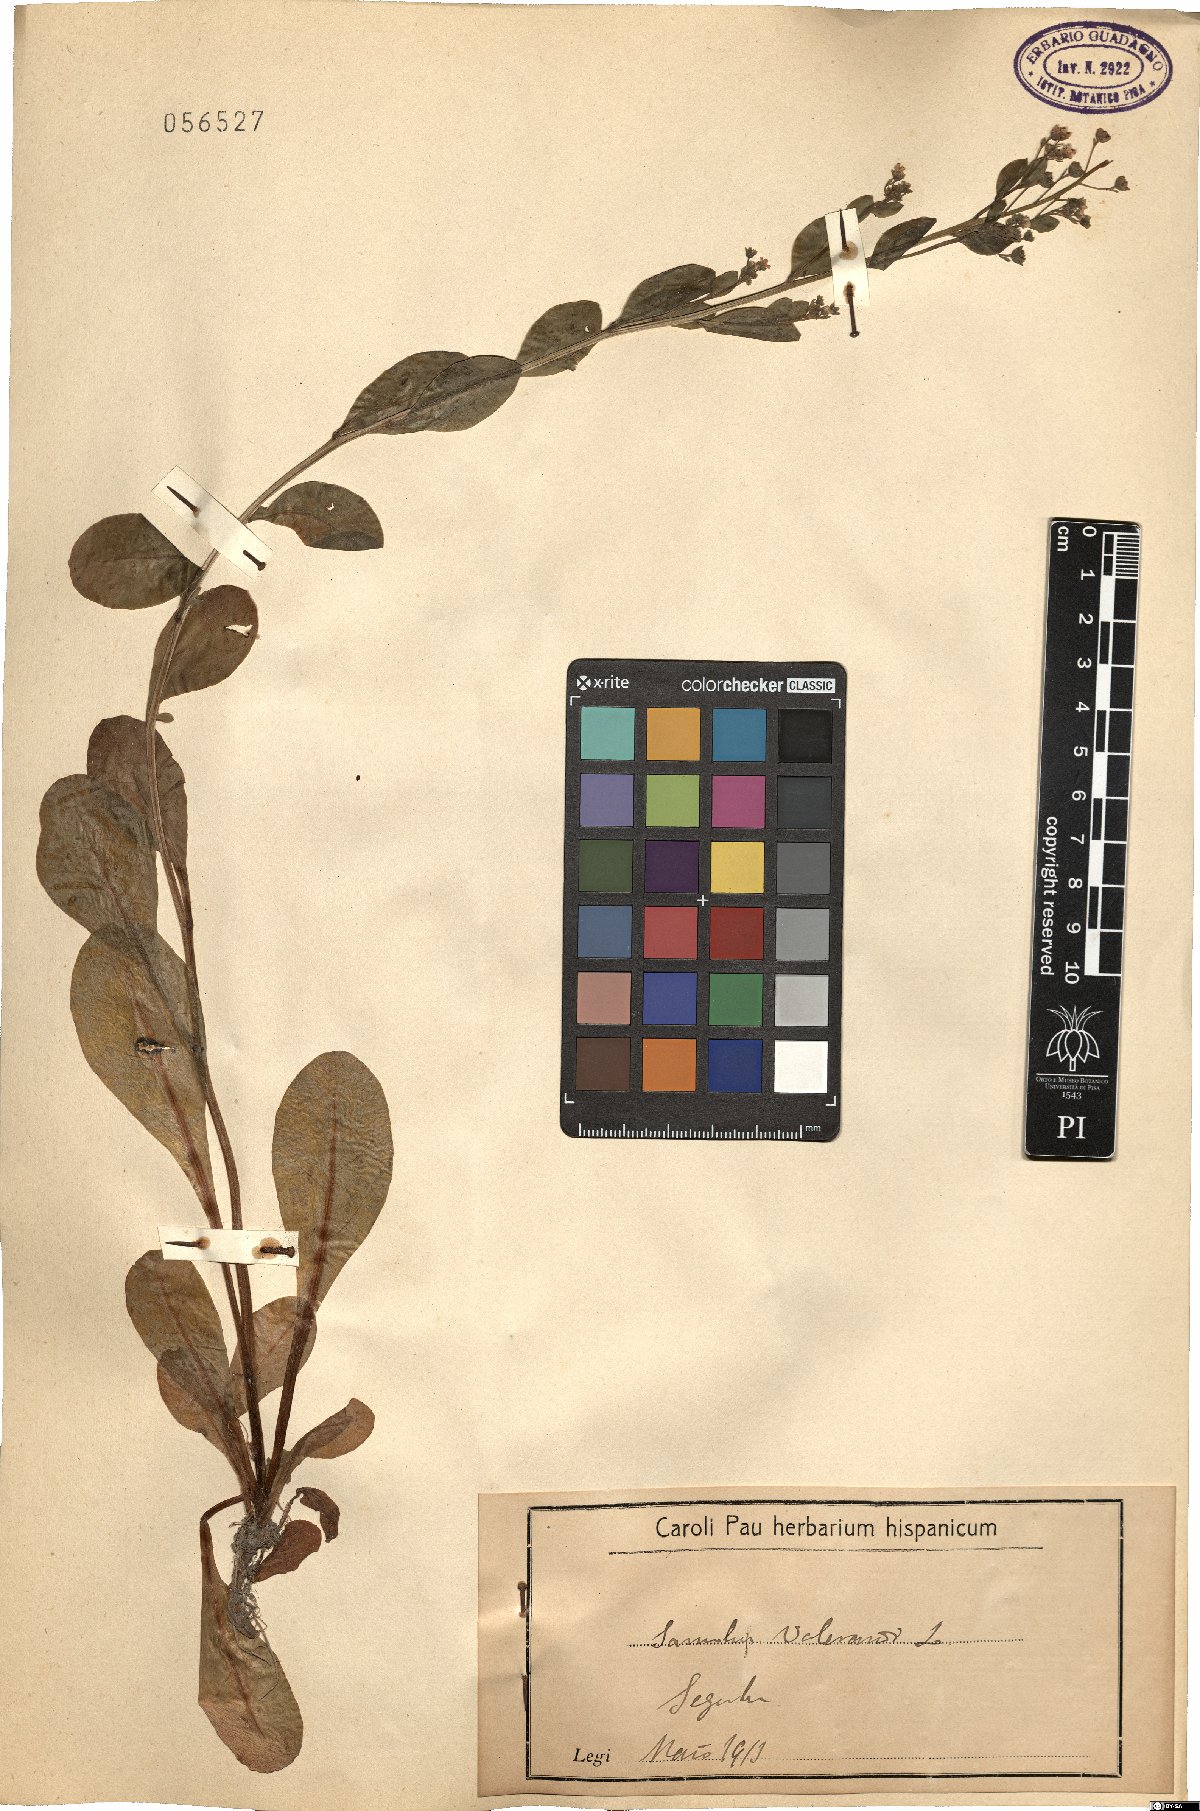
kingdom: Plantae
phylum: Tracheophyta
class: Magnoliopsida
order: Ericales
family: Primulaceae
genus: Samolus
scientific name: Samolus valerandi
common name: Brookweed
